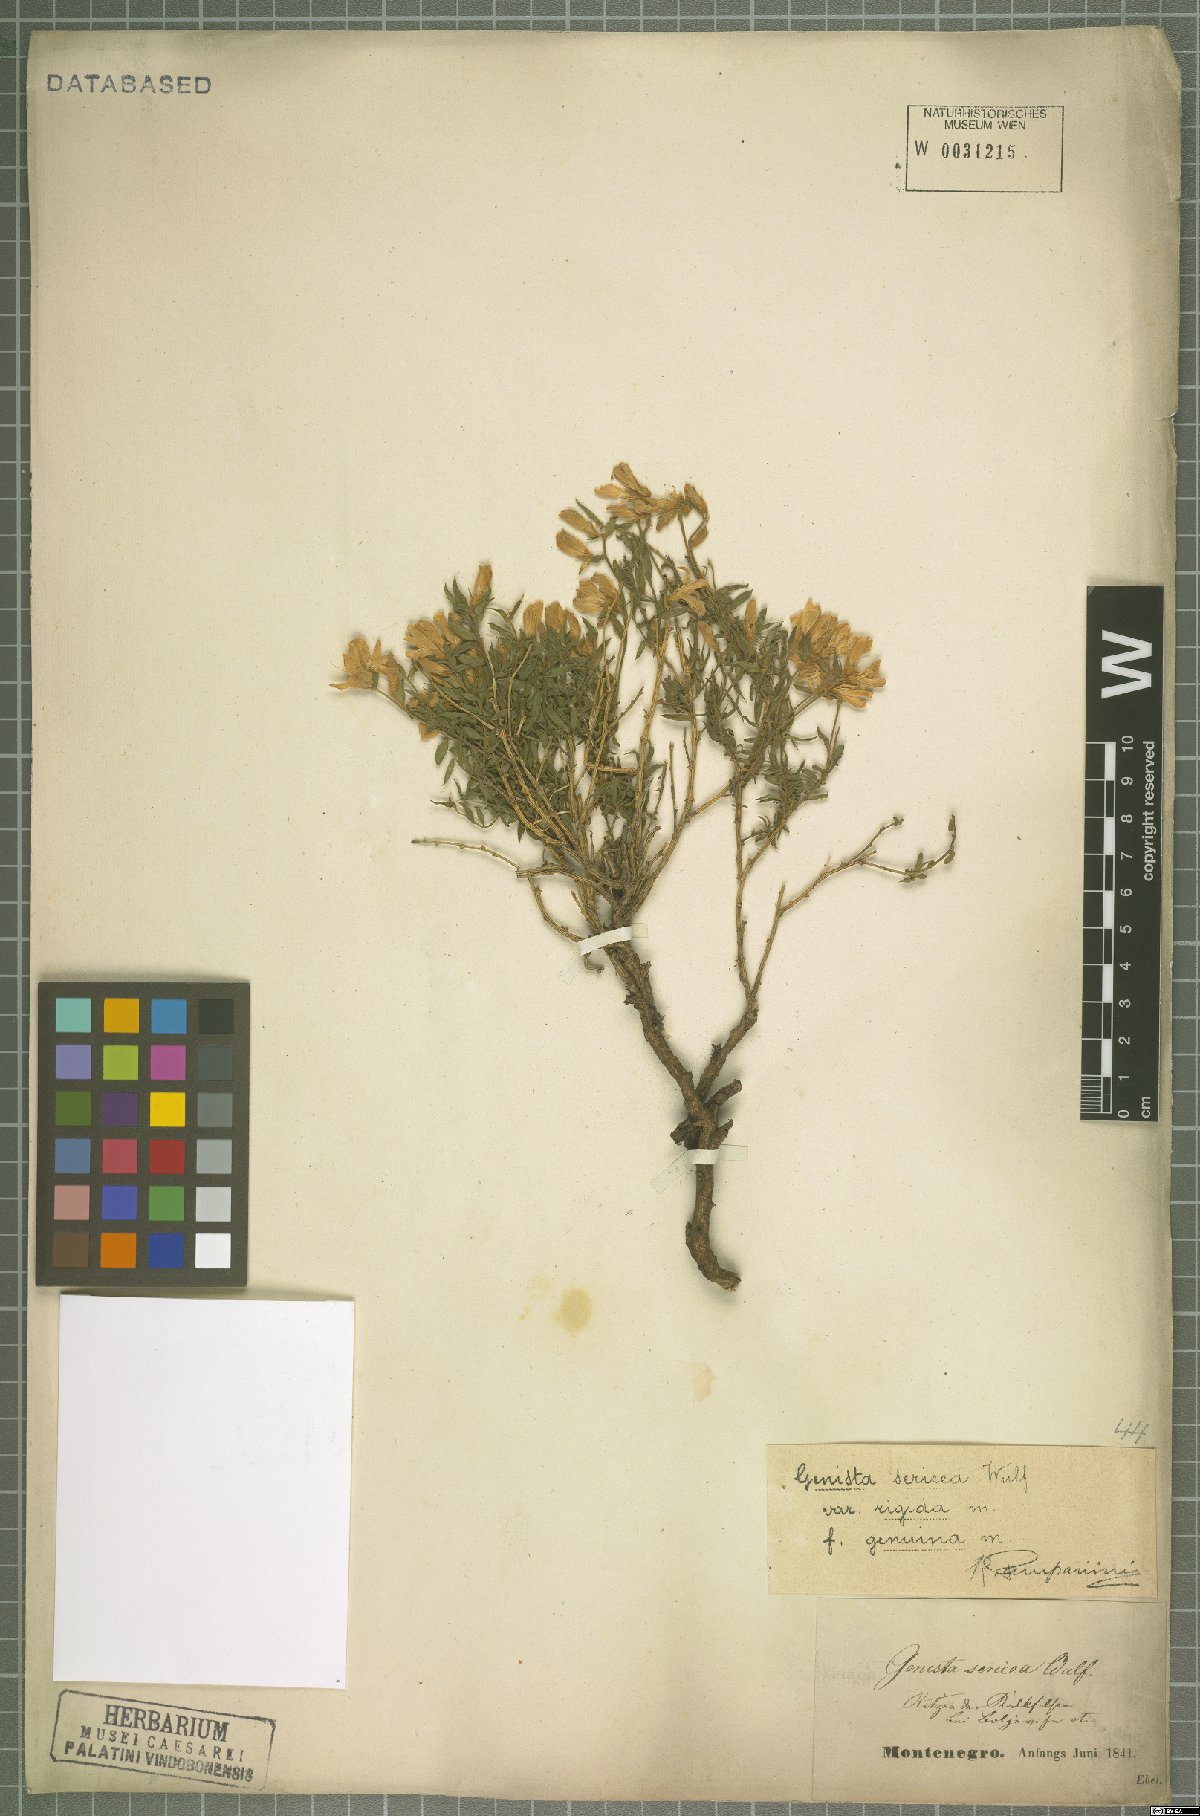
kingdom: Plantae
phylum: Tracheophyta
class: Magnoliopsida
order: Fabales
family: Fabaceae
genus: Genista
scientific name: Genista sericea
